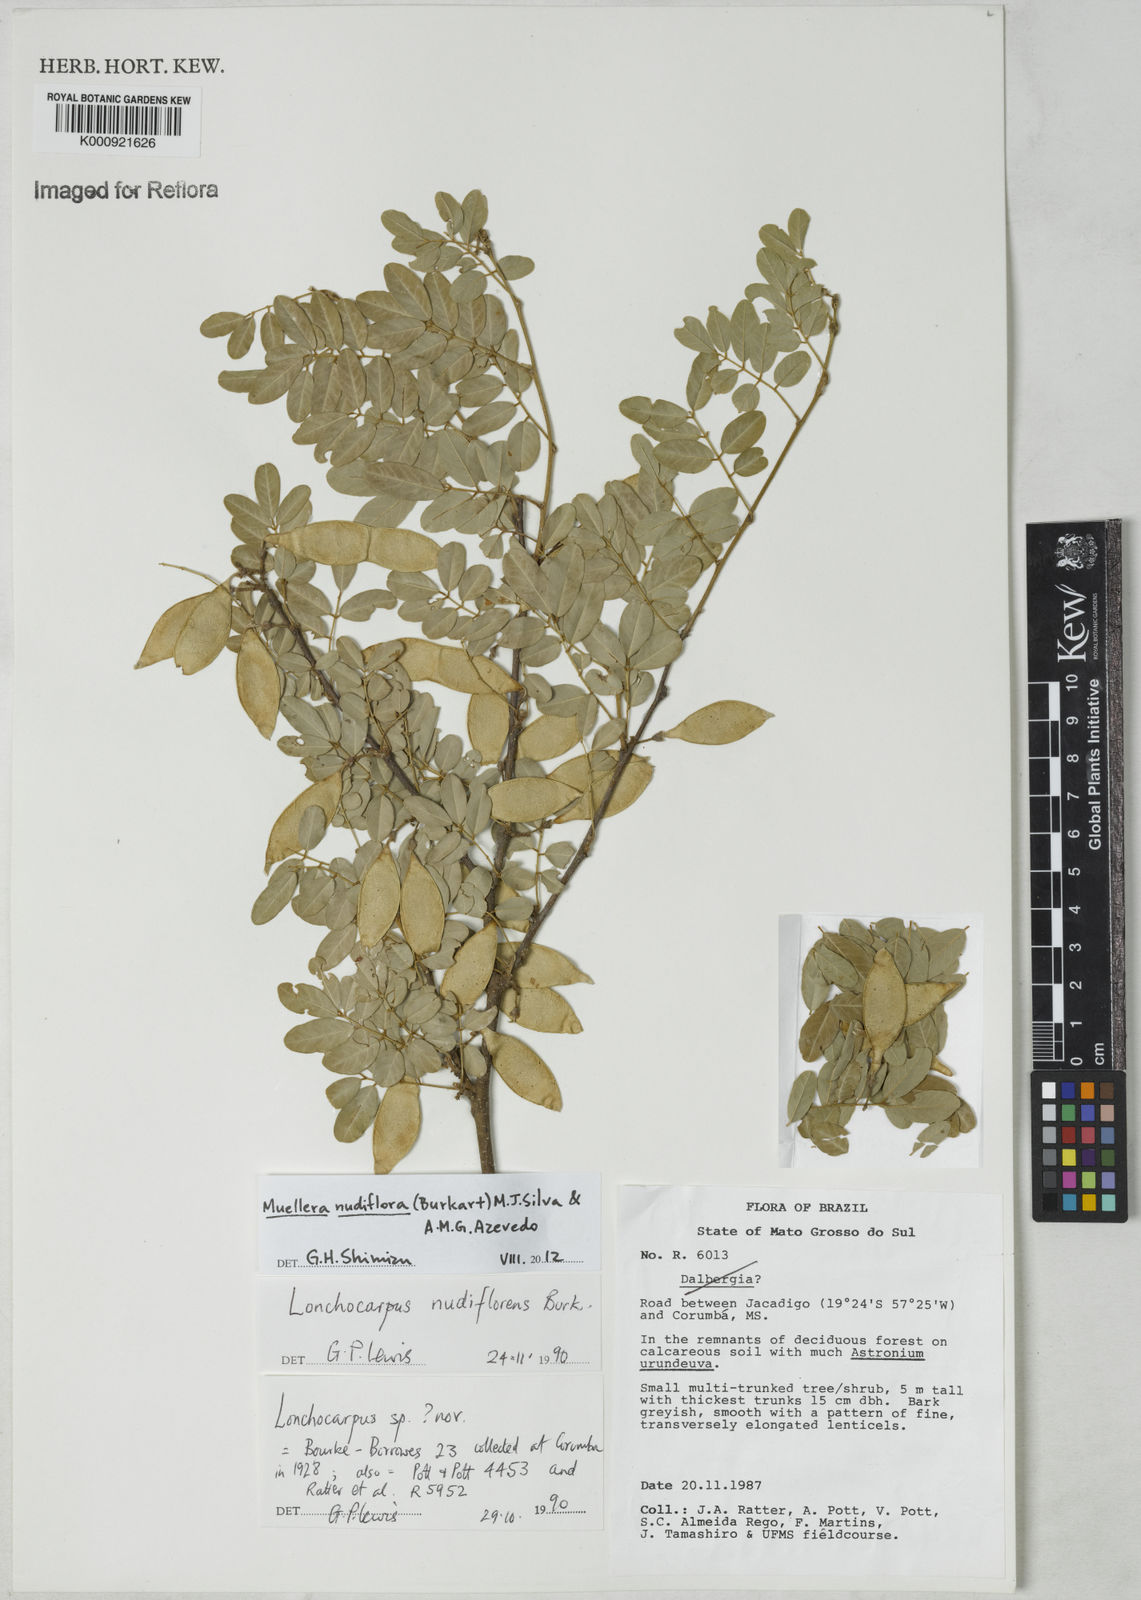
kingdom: Plantae
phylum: Tracheophyta
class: Magnoliopsida
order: Fabales
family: Fabaceae
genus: Muellera
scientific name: Muellera
